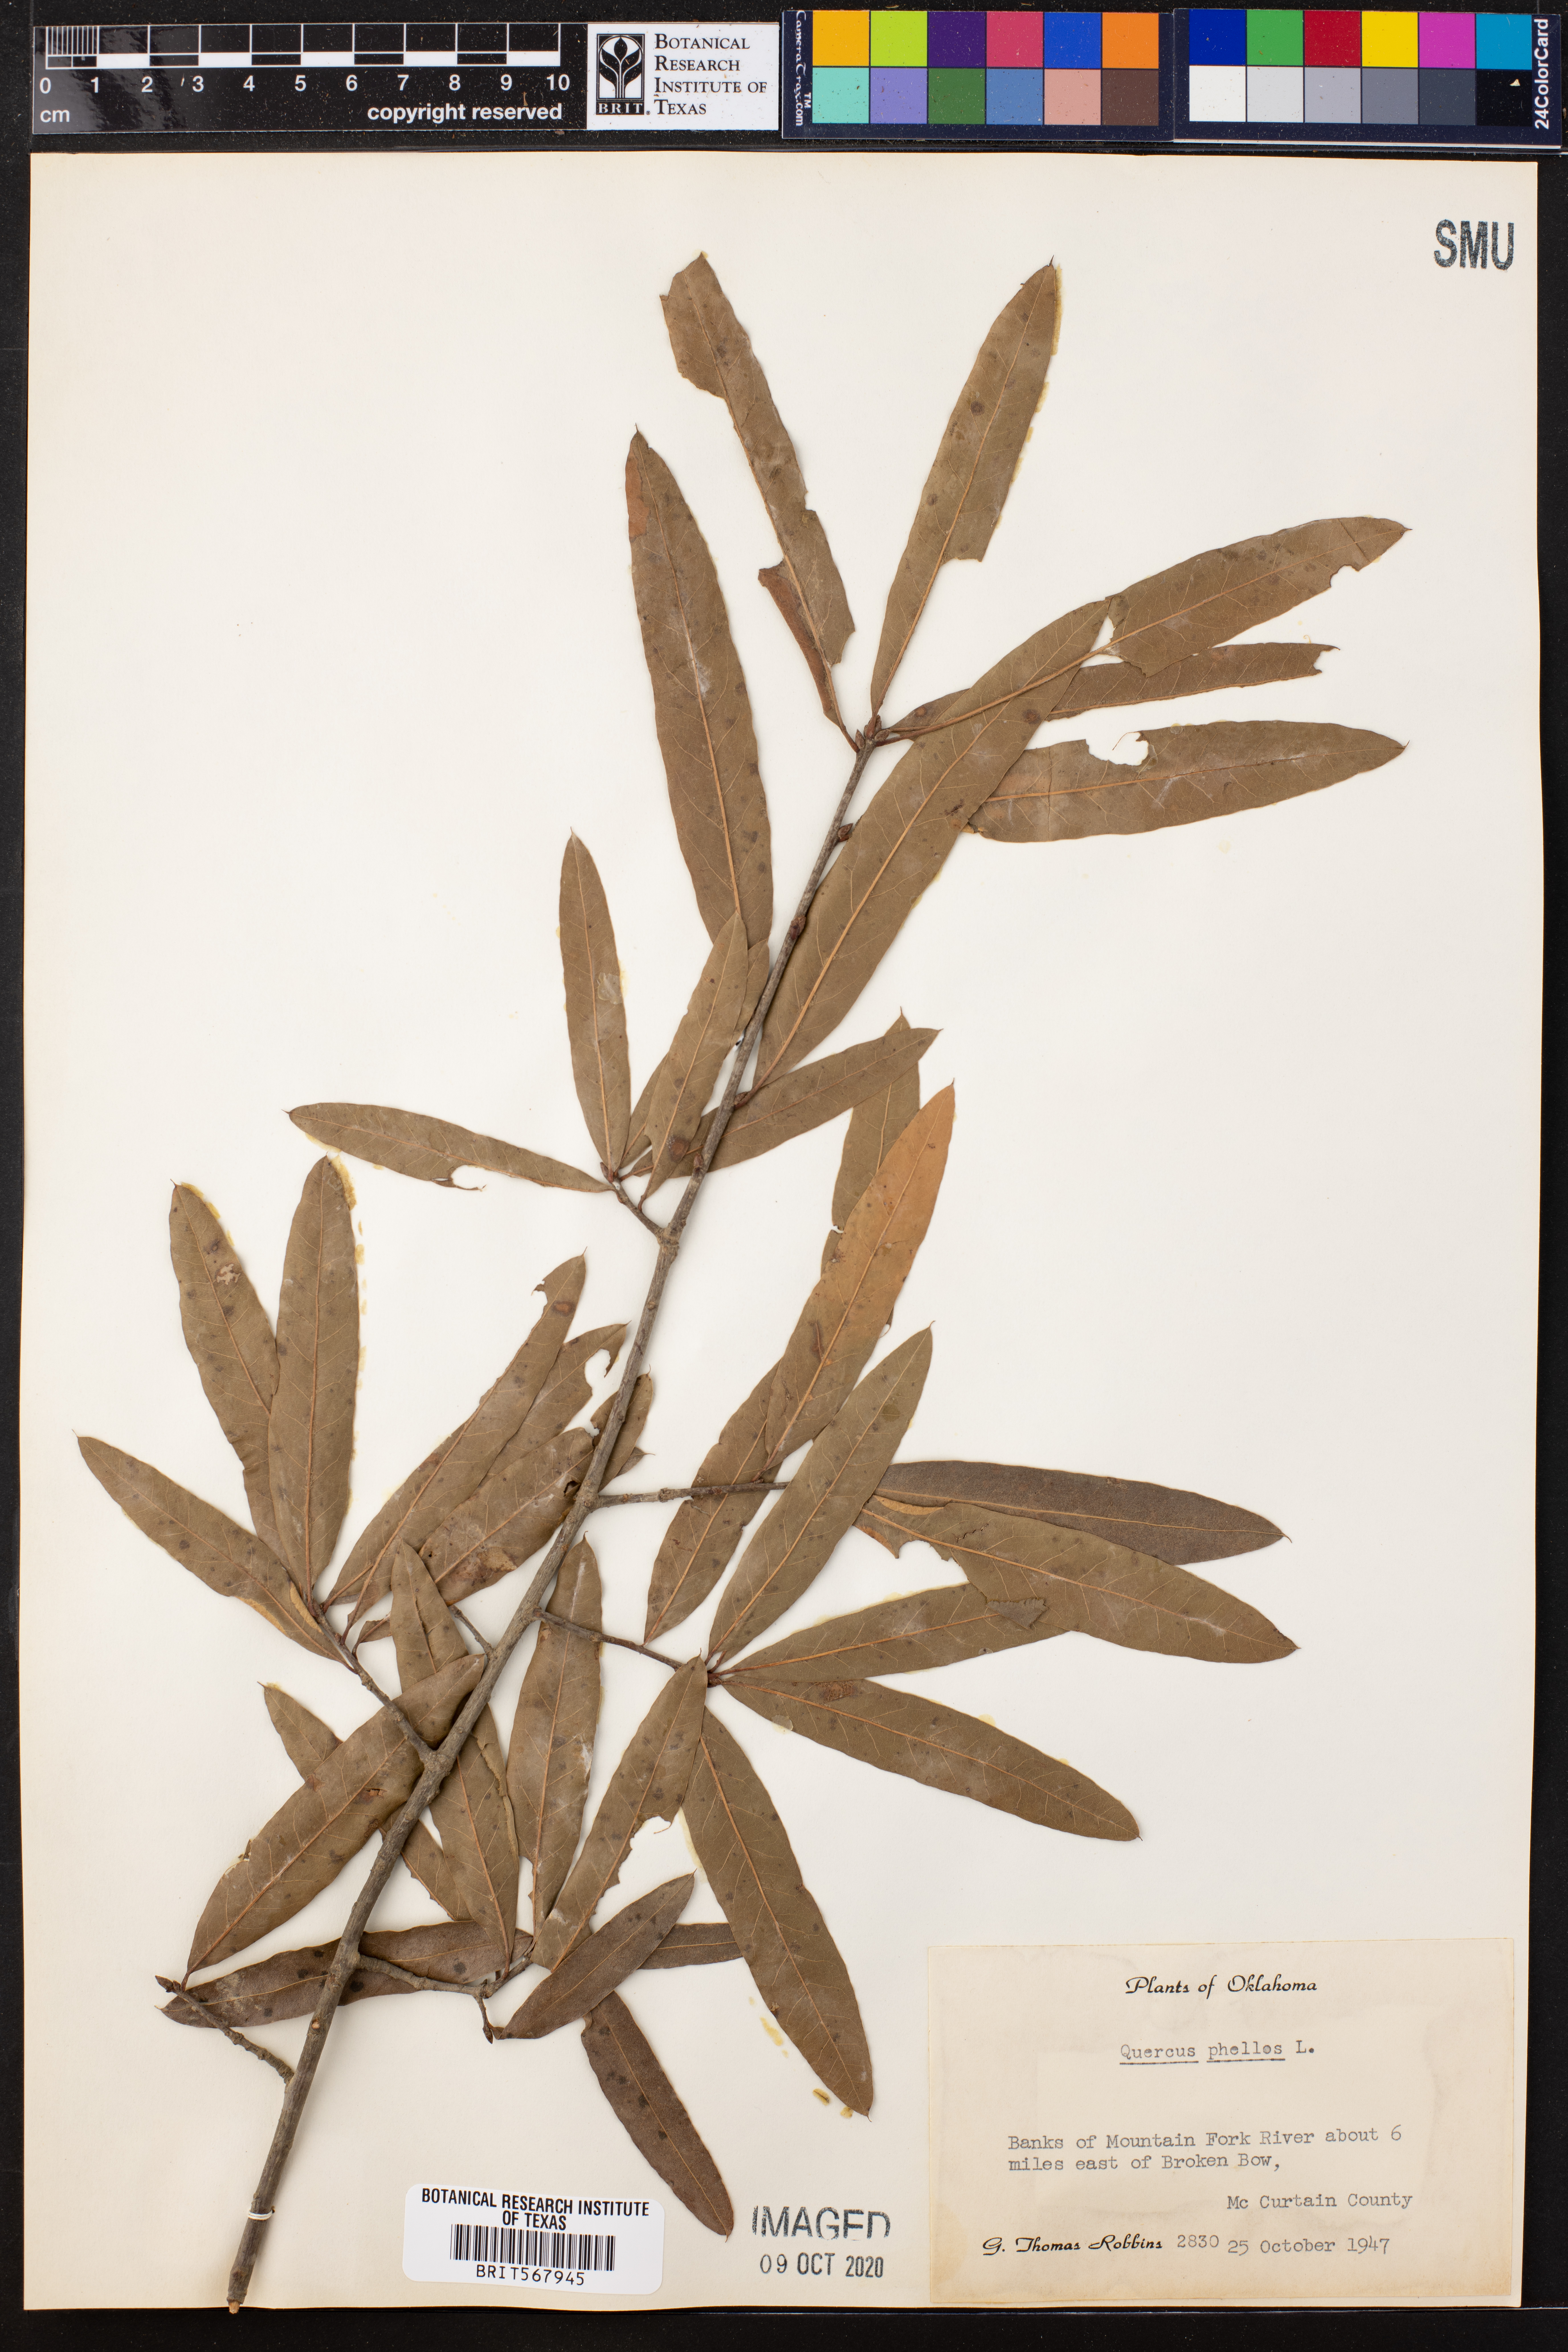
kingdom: Plantae
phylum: Tracheophyta
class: Magnoliopsida
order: Fagales
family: Fagaceae
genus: Quercus
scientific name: Quercus phellos
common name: Willow oak
